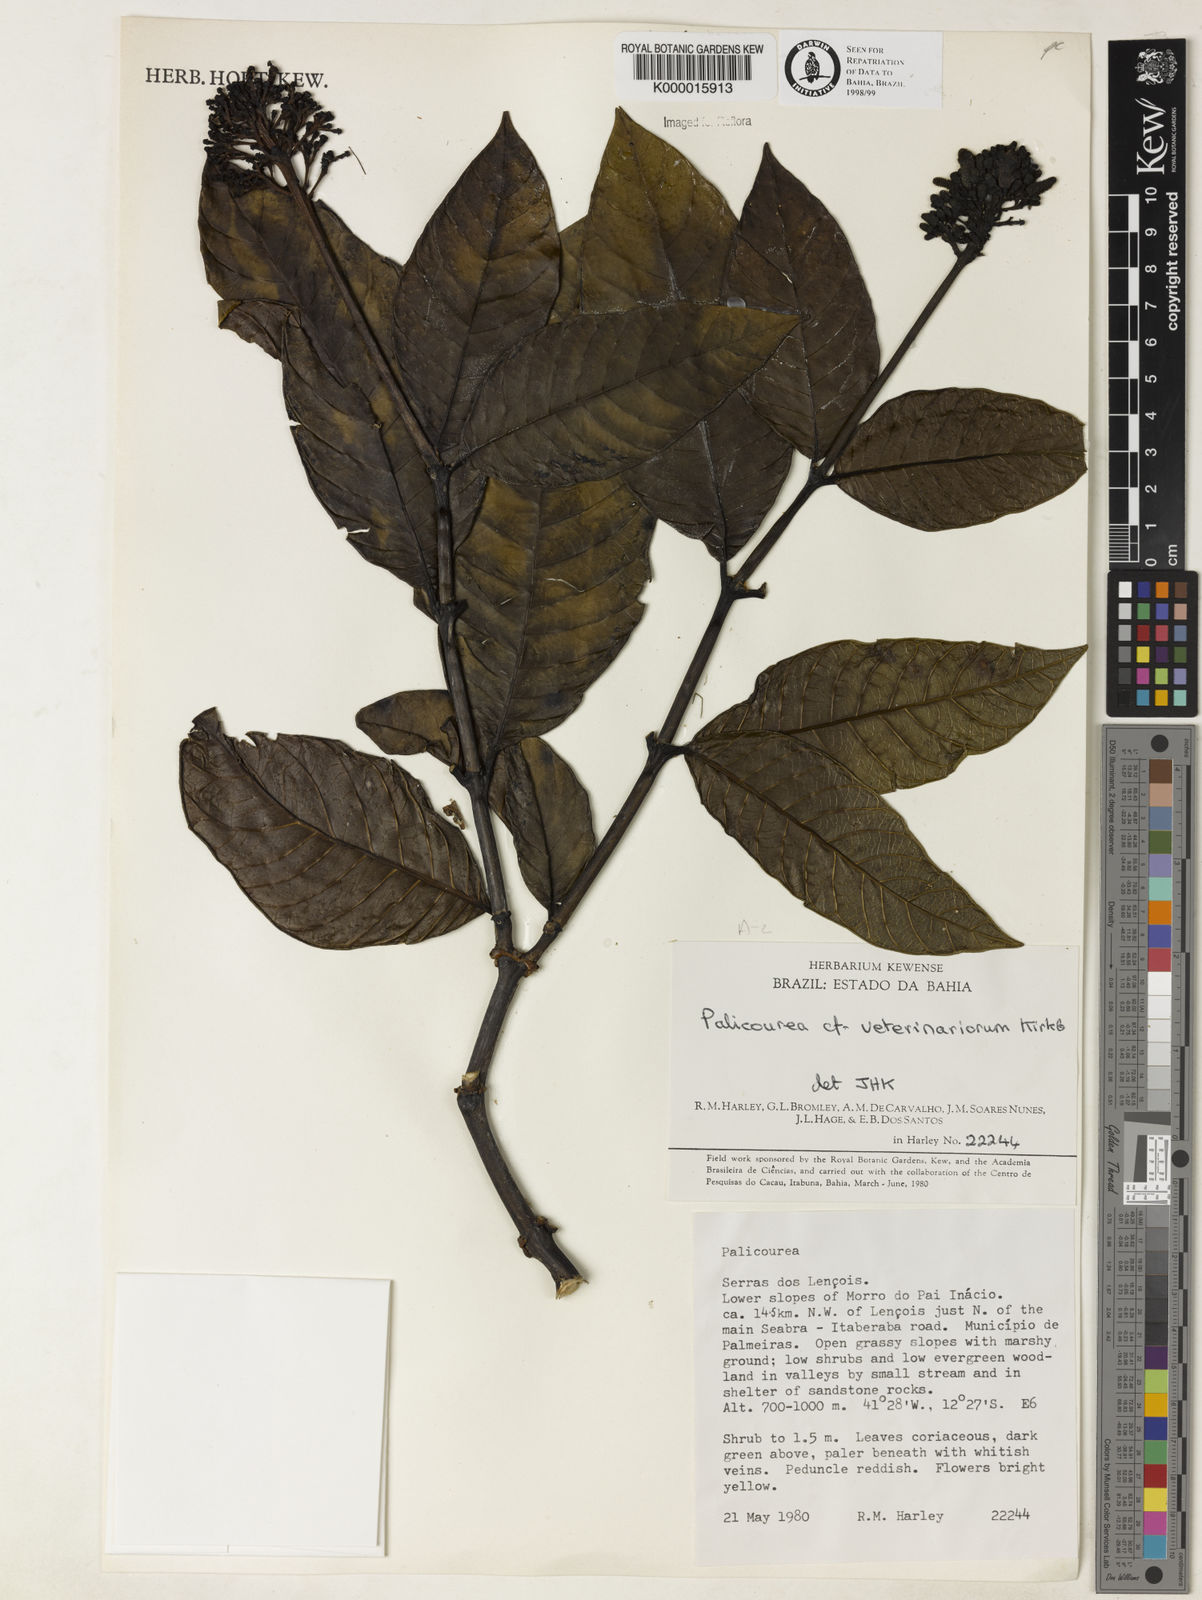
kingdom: Plantae
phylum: Tracheophyta
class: Magnoliopsida
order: Gentianales
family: Rubiaceae
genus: Palicourea
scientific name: Palicourea veterinariorum
